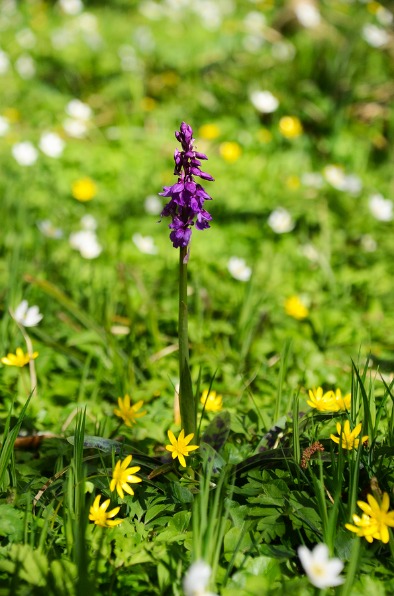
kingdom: Plantae
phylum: Tracheophyta
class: Liliopsida
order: Asparagales
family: Orchidaceae
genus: Orchis
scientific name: Orchis mascula
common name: Tyndakset gøgeurt
